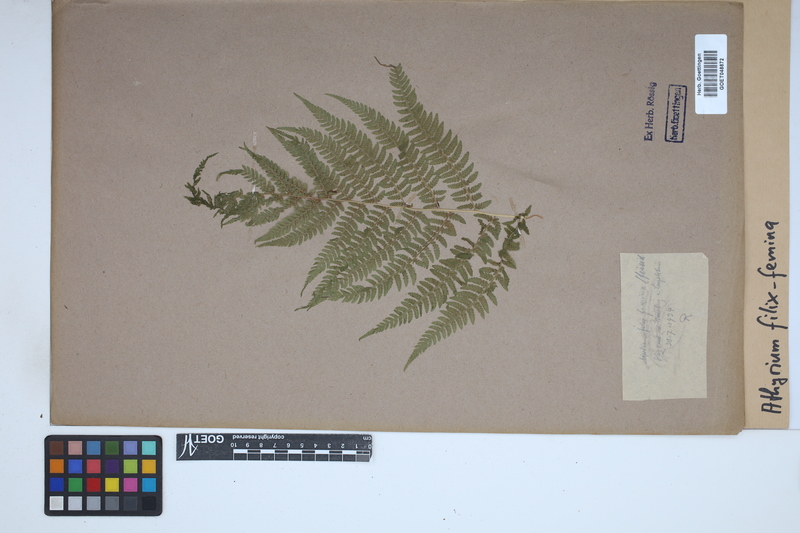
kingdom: Plantae
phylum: Tracheophyta
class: Polypodiopsida
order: Polypodiales
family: Athyriaceae
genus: Athyrium
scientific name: Athyrium filix-femina
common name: Lady fern
